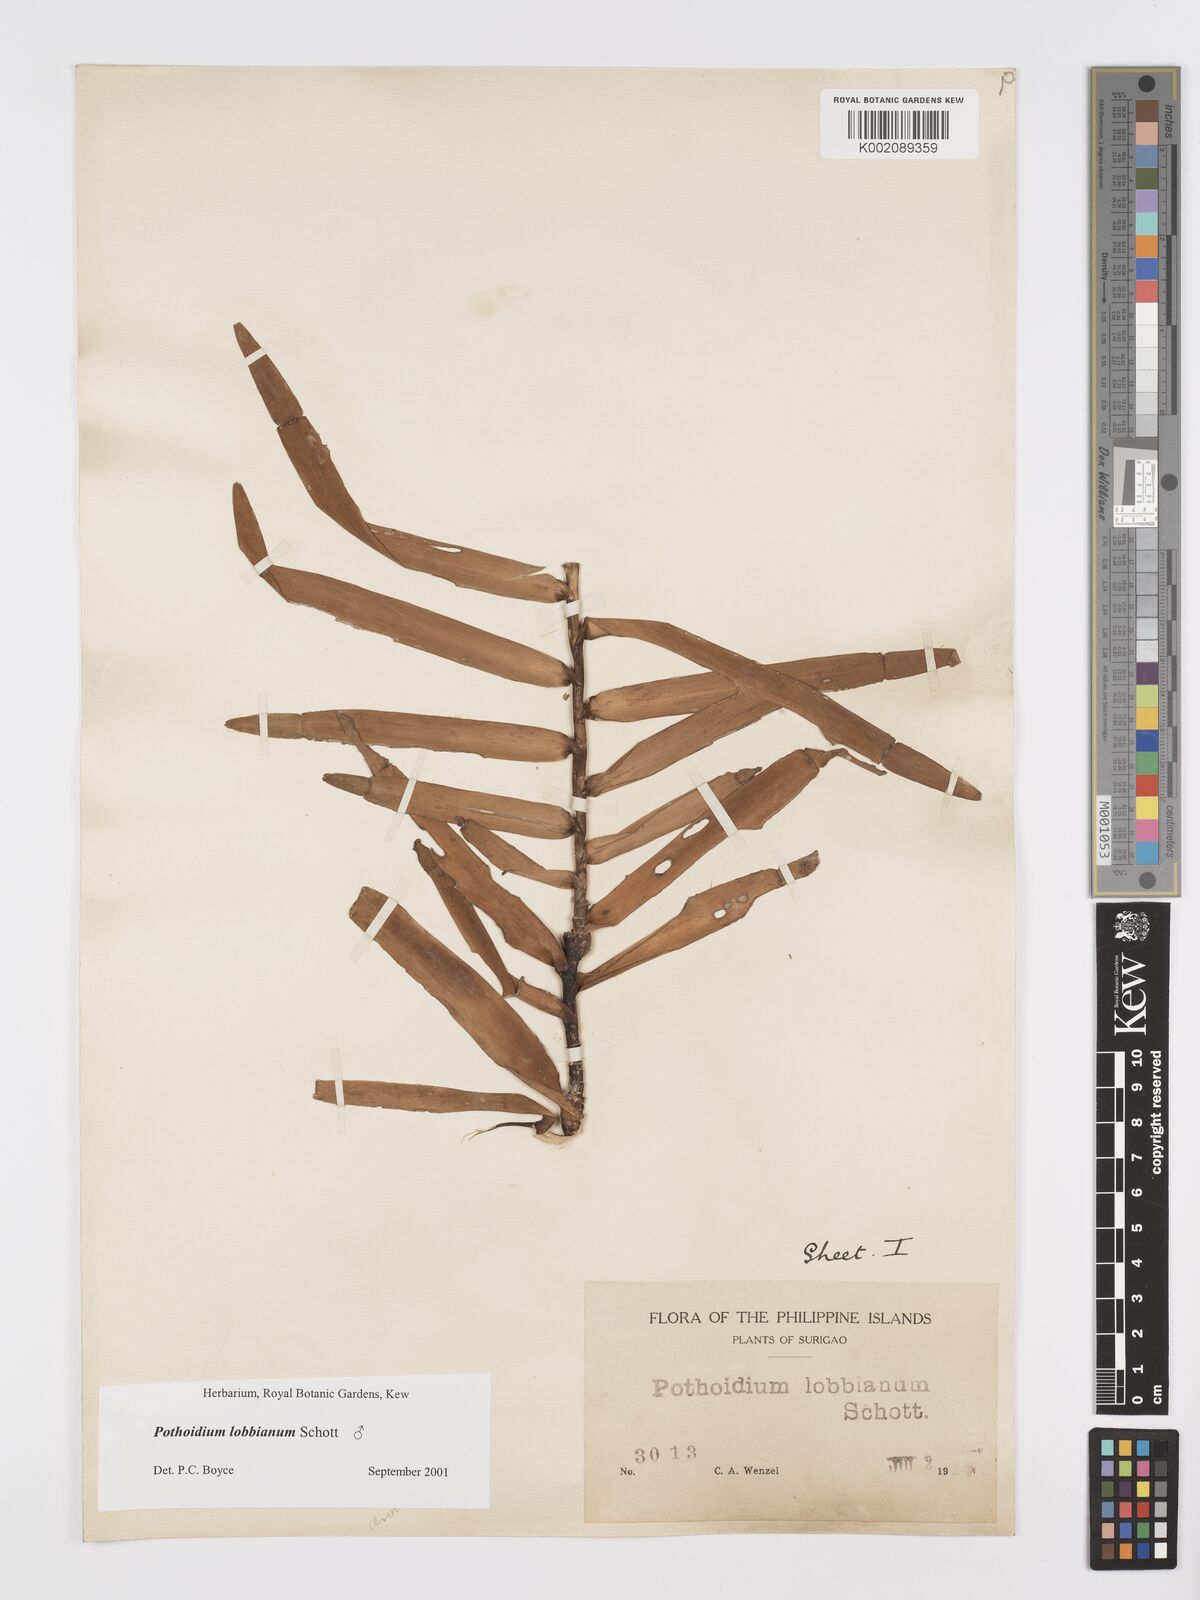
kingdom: Plantae
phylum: Tracheophyta
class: Liliopsida
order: Alismatales
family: Araceae
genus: Pothoidium
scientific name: Pothoidium lobbianum
